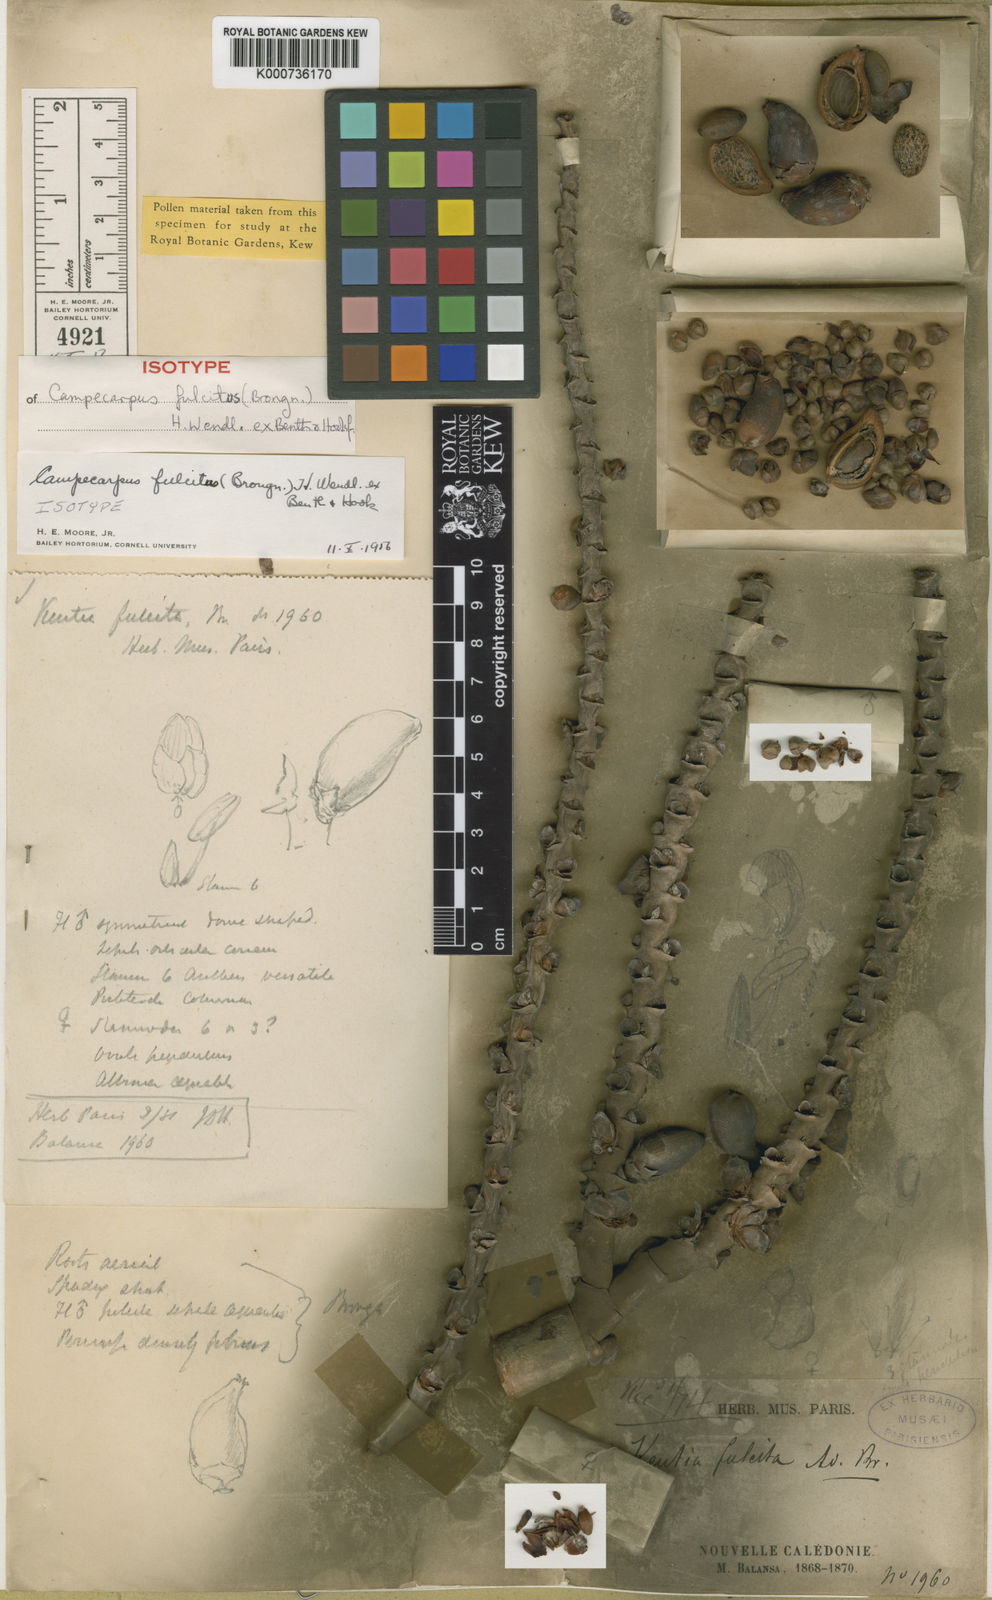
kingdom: Plantae
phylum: Tracheophyta
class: Liliopsida
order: Arecales
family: Arecaceae
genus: Cyphophoenix
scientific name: Cyphophoenix fulcita
